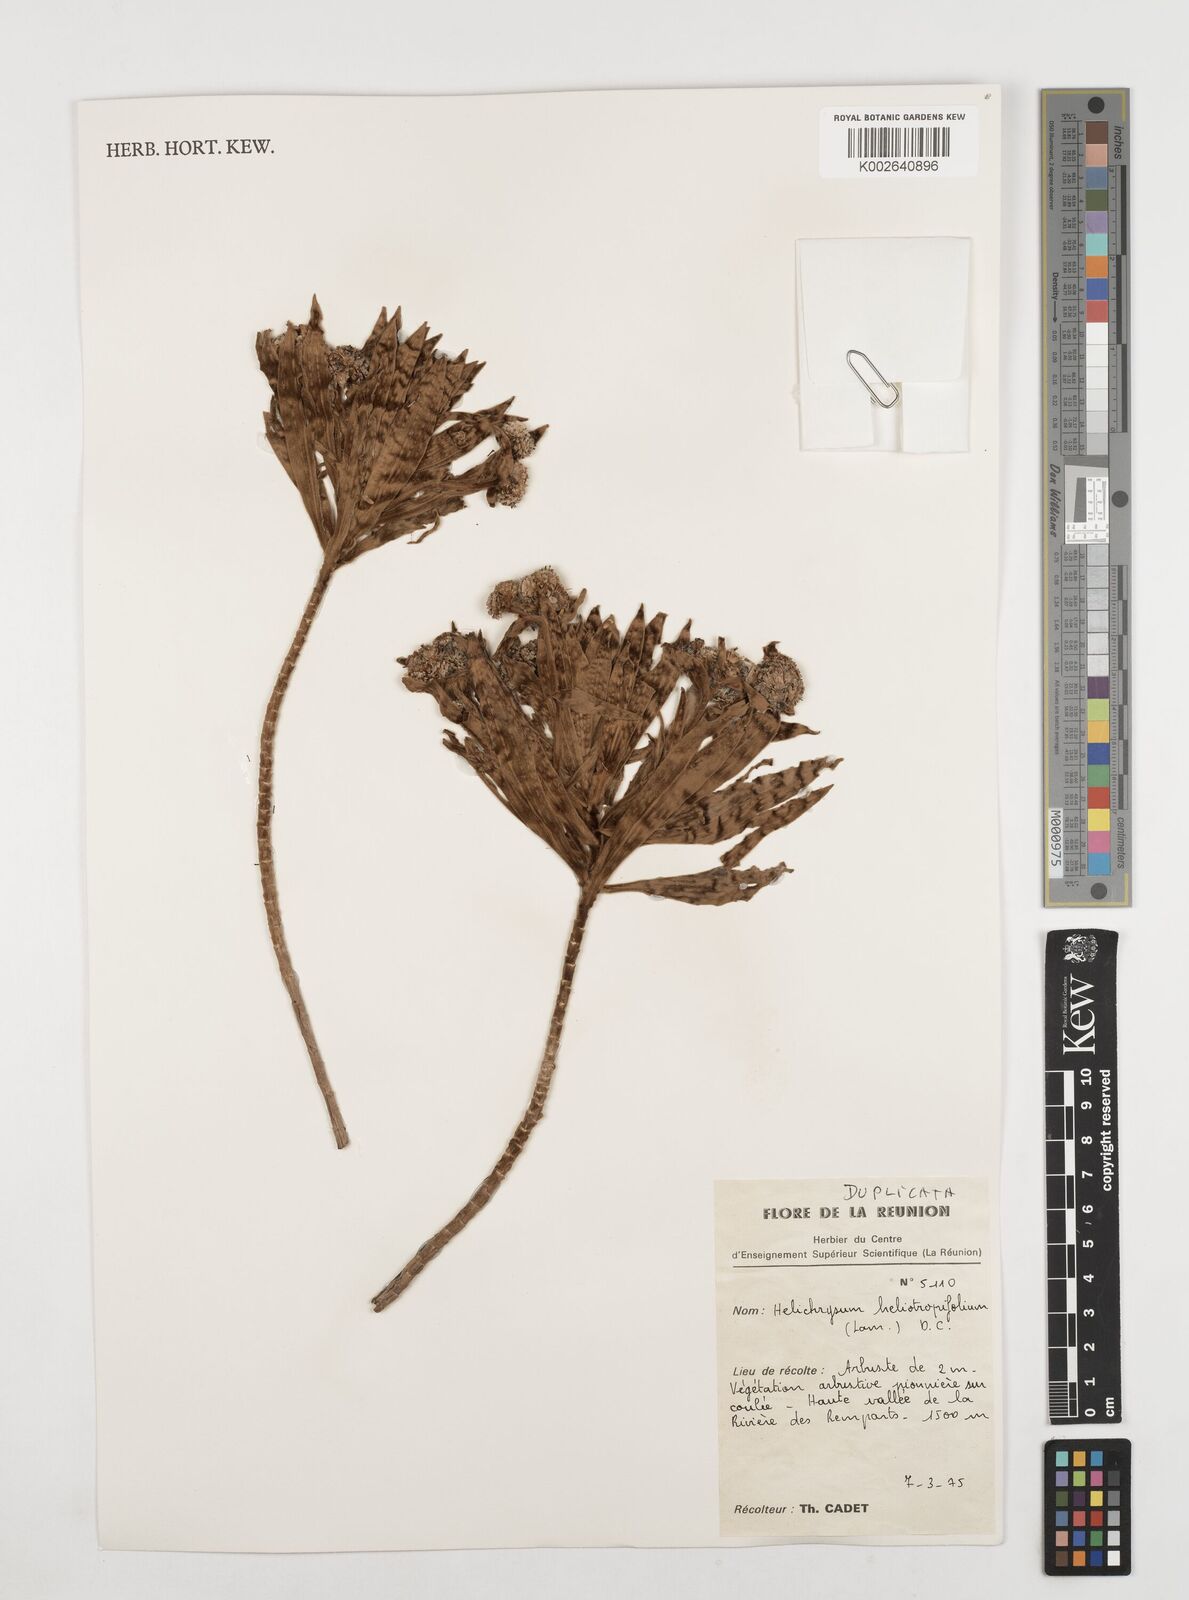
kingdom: Plantae
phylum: Tracheophyta
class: Magnoliopsida
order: Asterales
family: Asteraceae
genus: Helichrysum
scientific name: Helichrysum heliotropifolium
